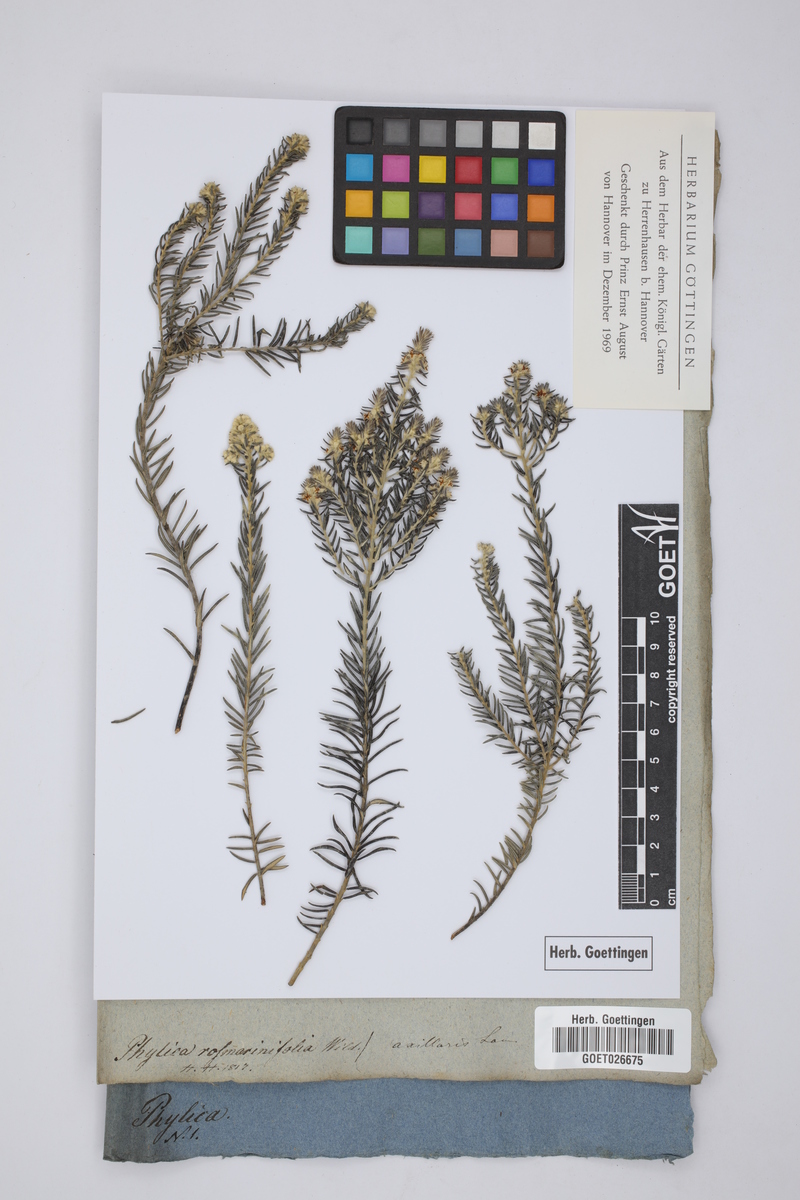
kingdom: Plantae
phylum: Tracheophyta
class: Magnoliopsida
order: Rosales
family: Rhamnaceae
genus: Phylica
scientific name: Phylica axillaris
